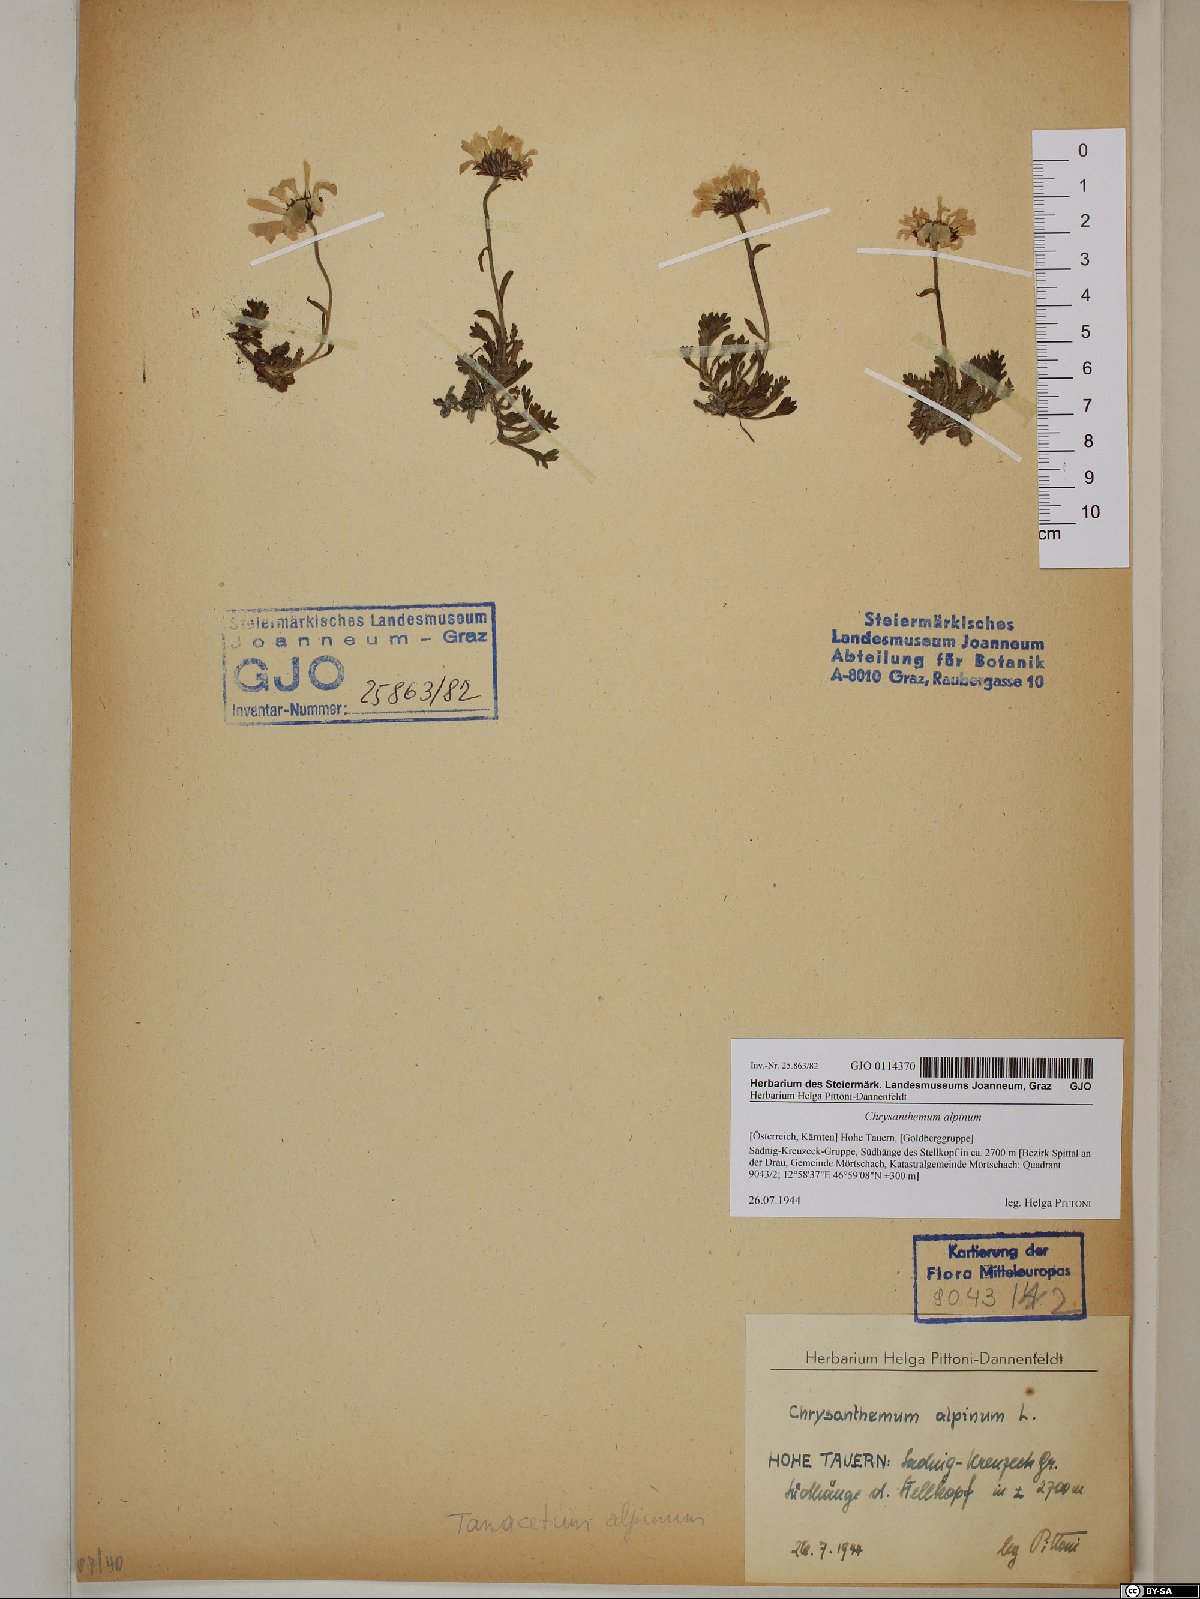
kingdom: Plantae
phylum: Tracheophyta
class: Magnoliopsida
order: Asterales
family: Asteraceae
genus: Leucanthemopsis
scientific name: Leucanthemopsis alpina
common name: Alpine moon daisy
